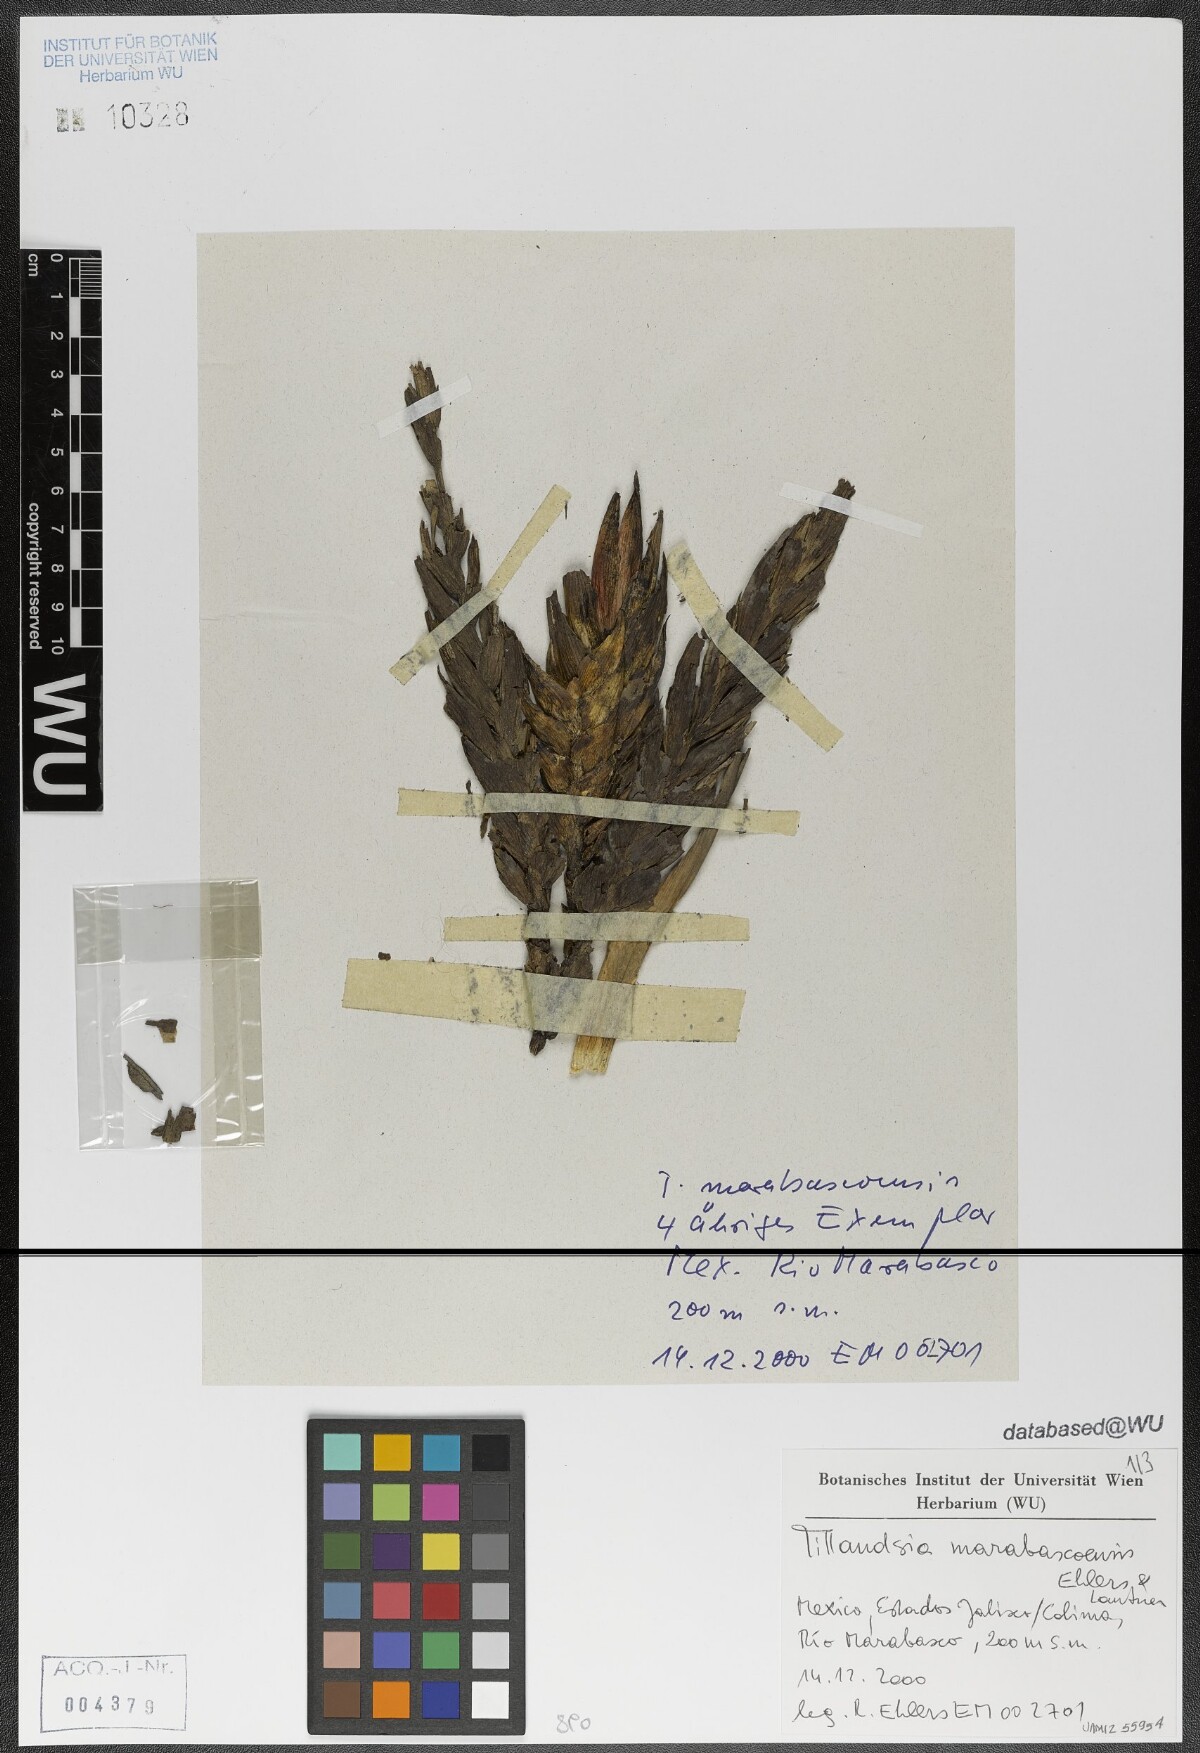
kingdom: Plantae
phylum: Tracheophyta
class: Liliopsida
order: Poales
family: Bromeliaceae
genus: Tillandsia
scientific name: Tillandsia marabascoensis
